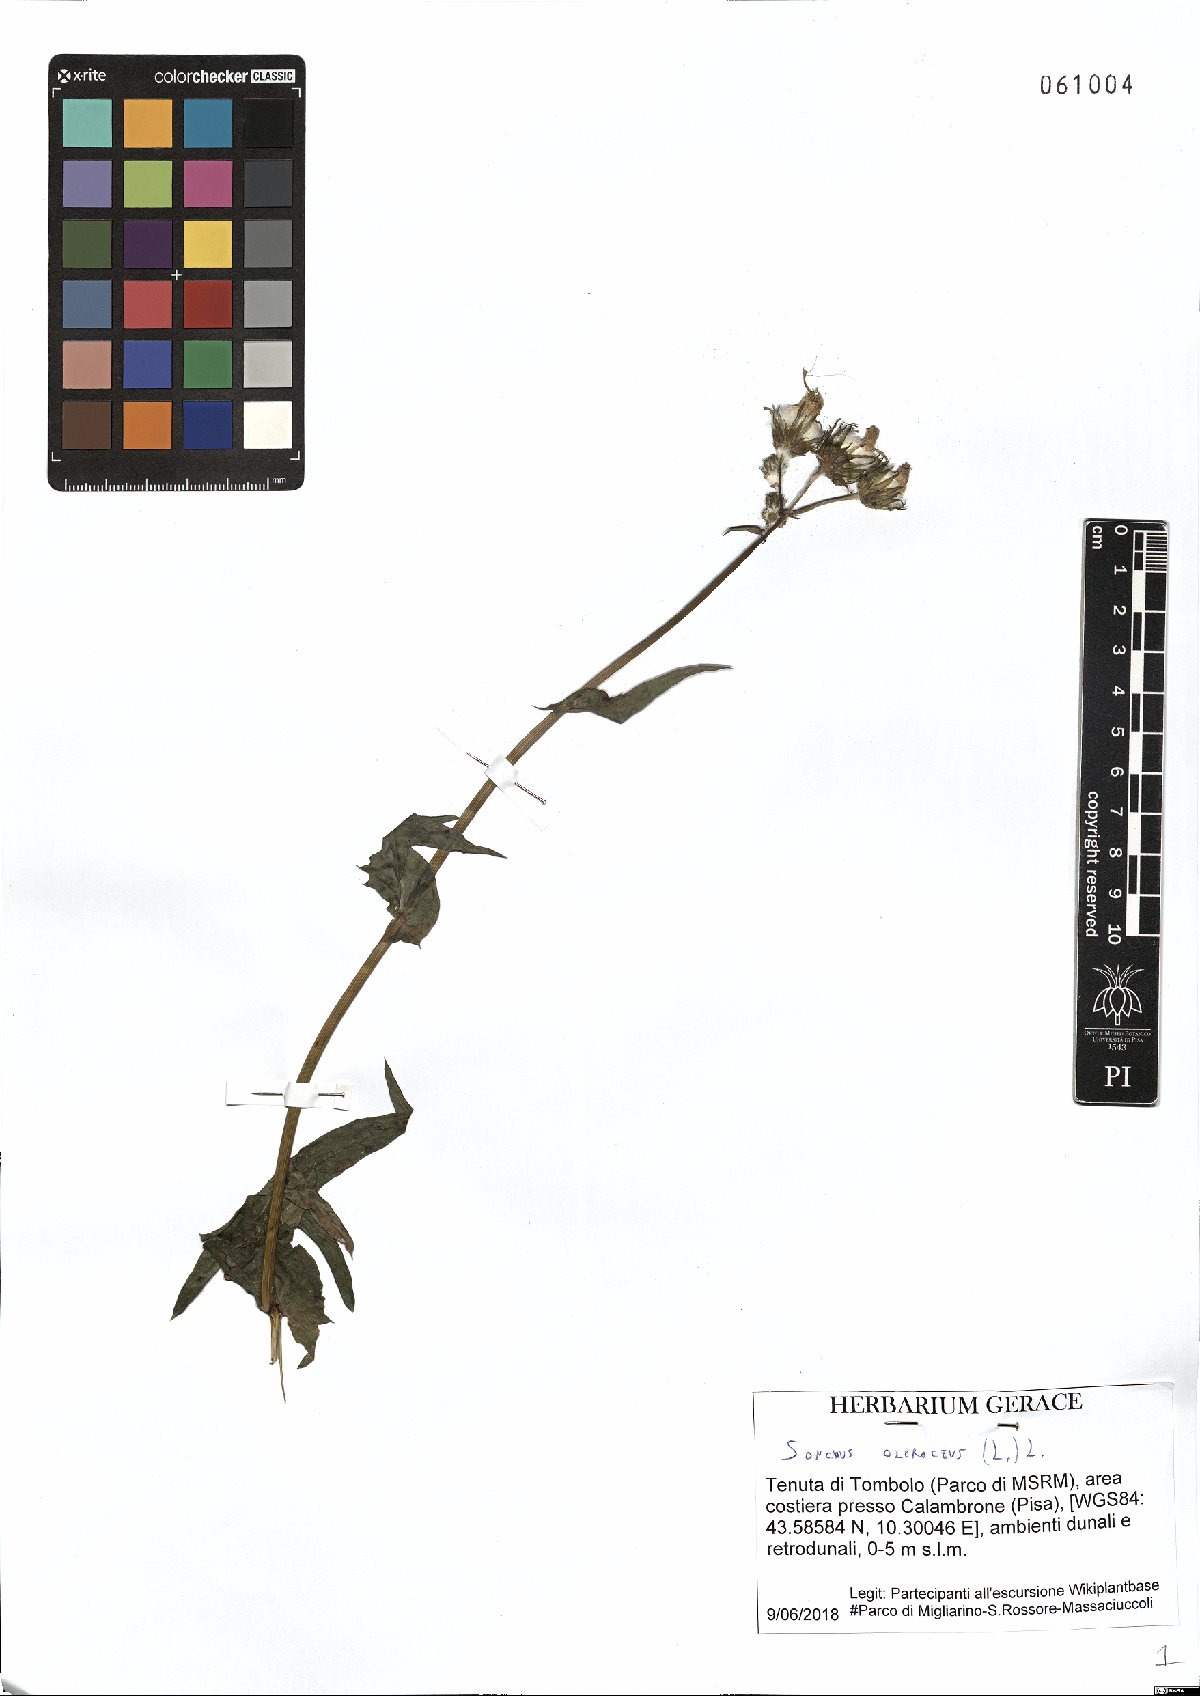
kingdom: Plantae
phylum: Tracheophyta
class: Magnoliopsida
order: Asterales
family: Asteraceae
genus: Sonchus
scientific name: Sonchus oleraceus
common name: Common sowthistle
